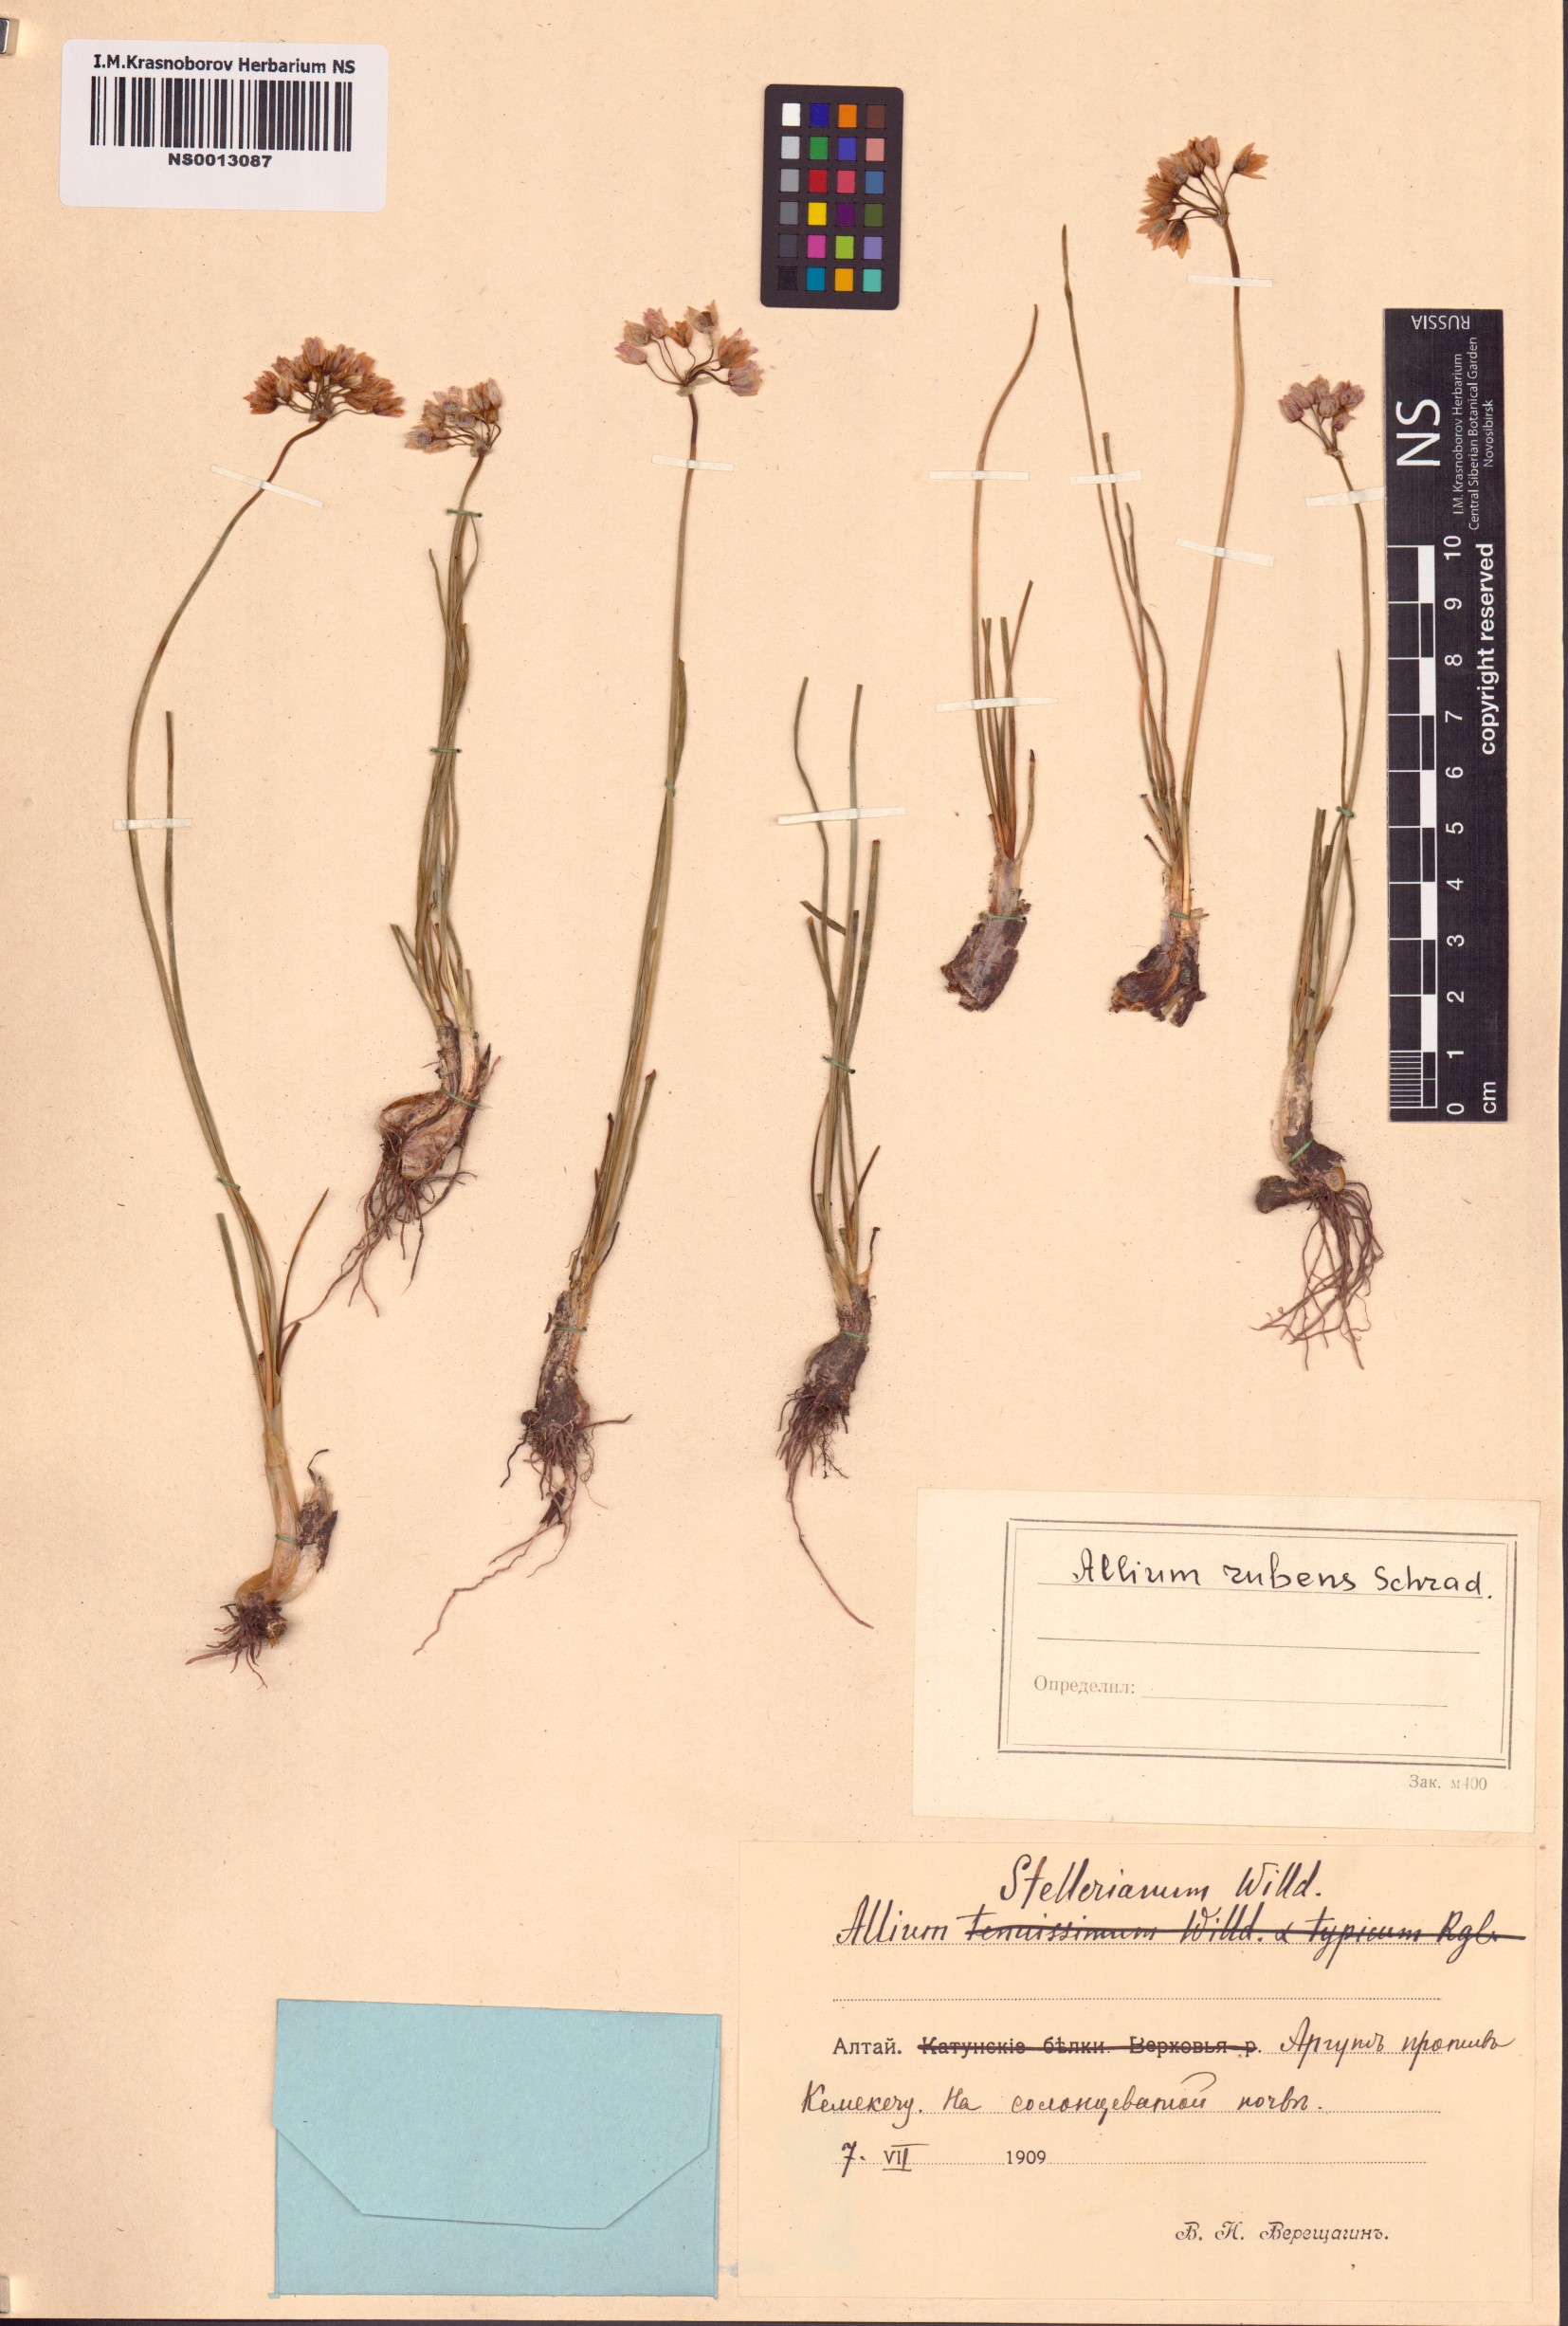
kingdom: Plantae
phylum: Tracheophyta
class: Liliopsida
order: Asparagales
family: Amaryllidaceae
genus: Allium
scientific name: Allium rubens
